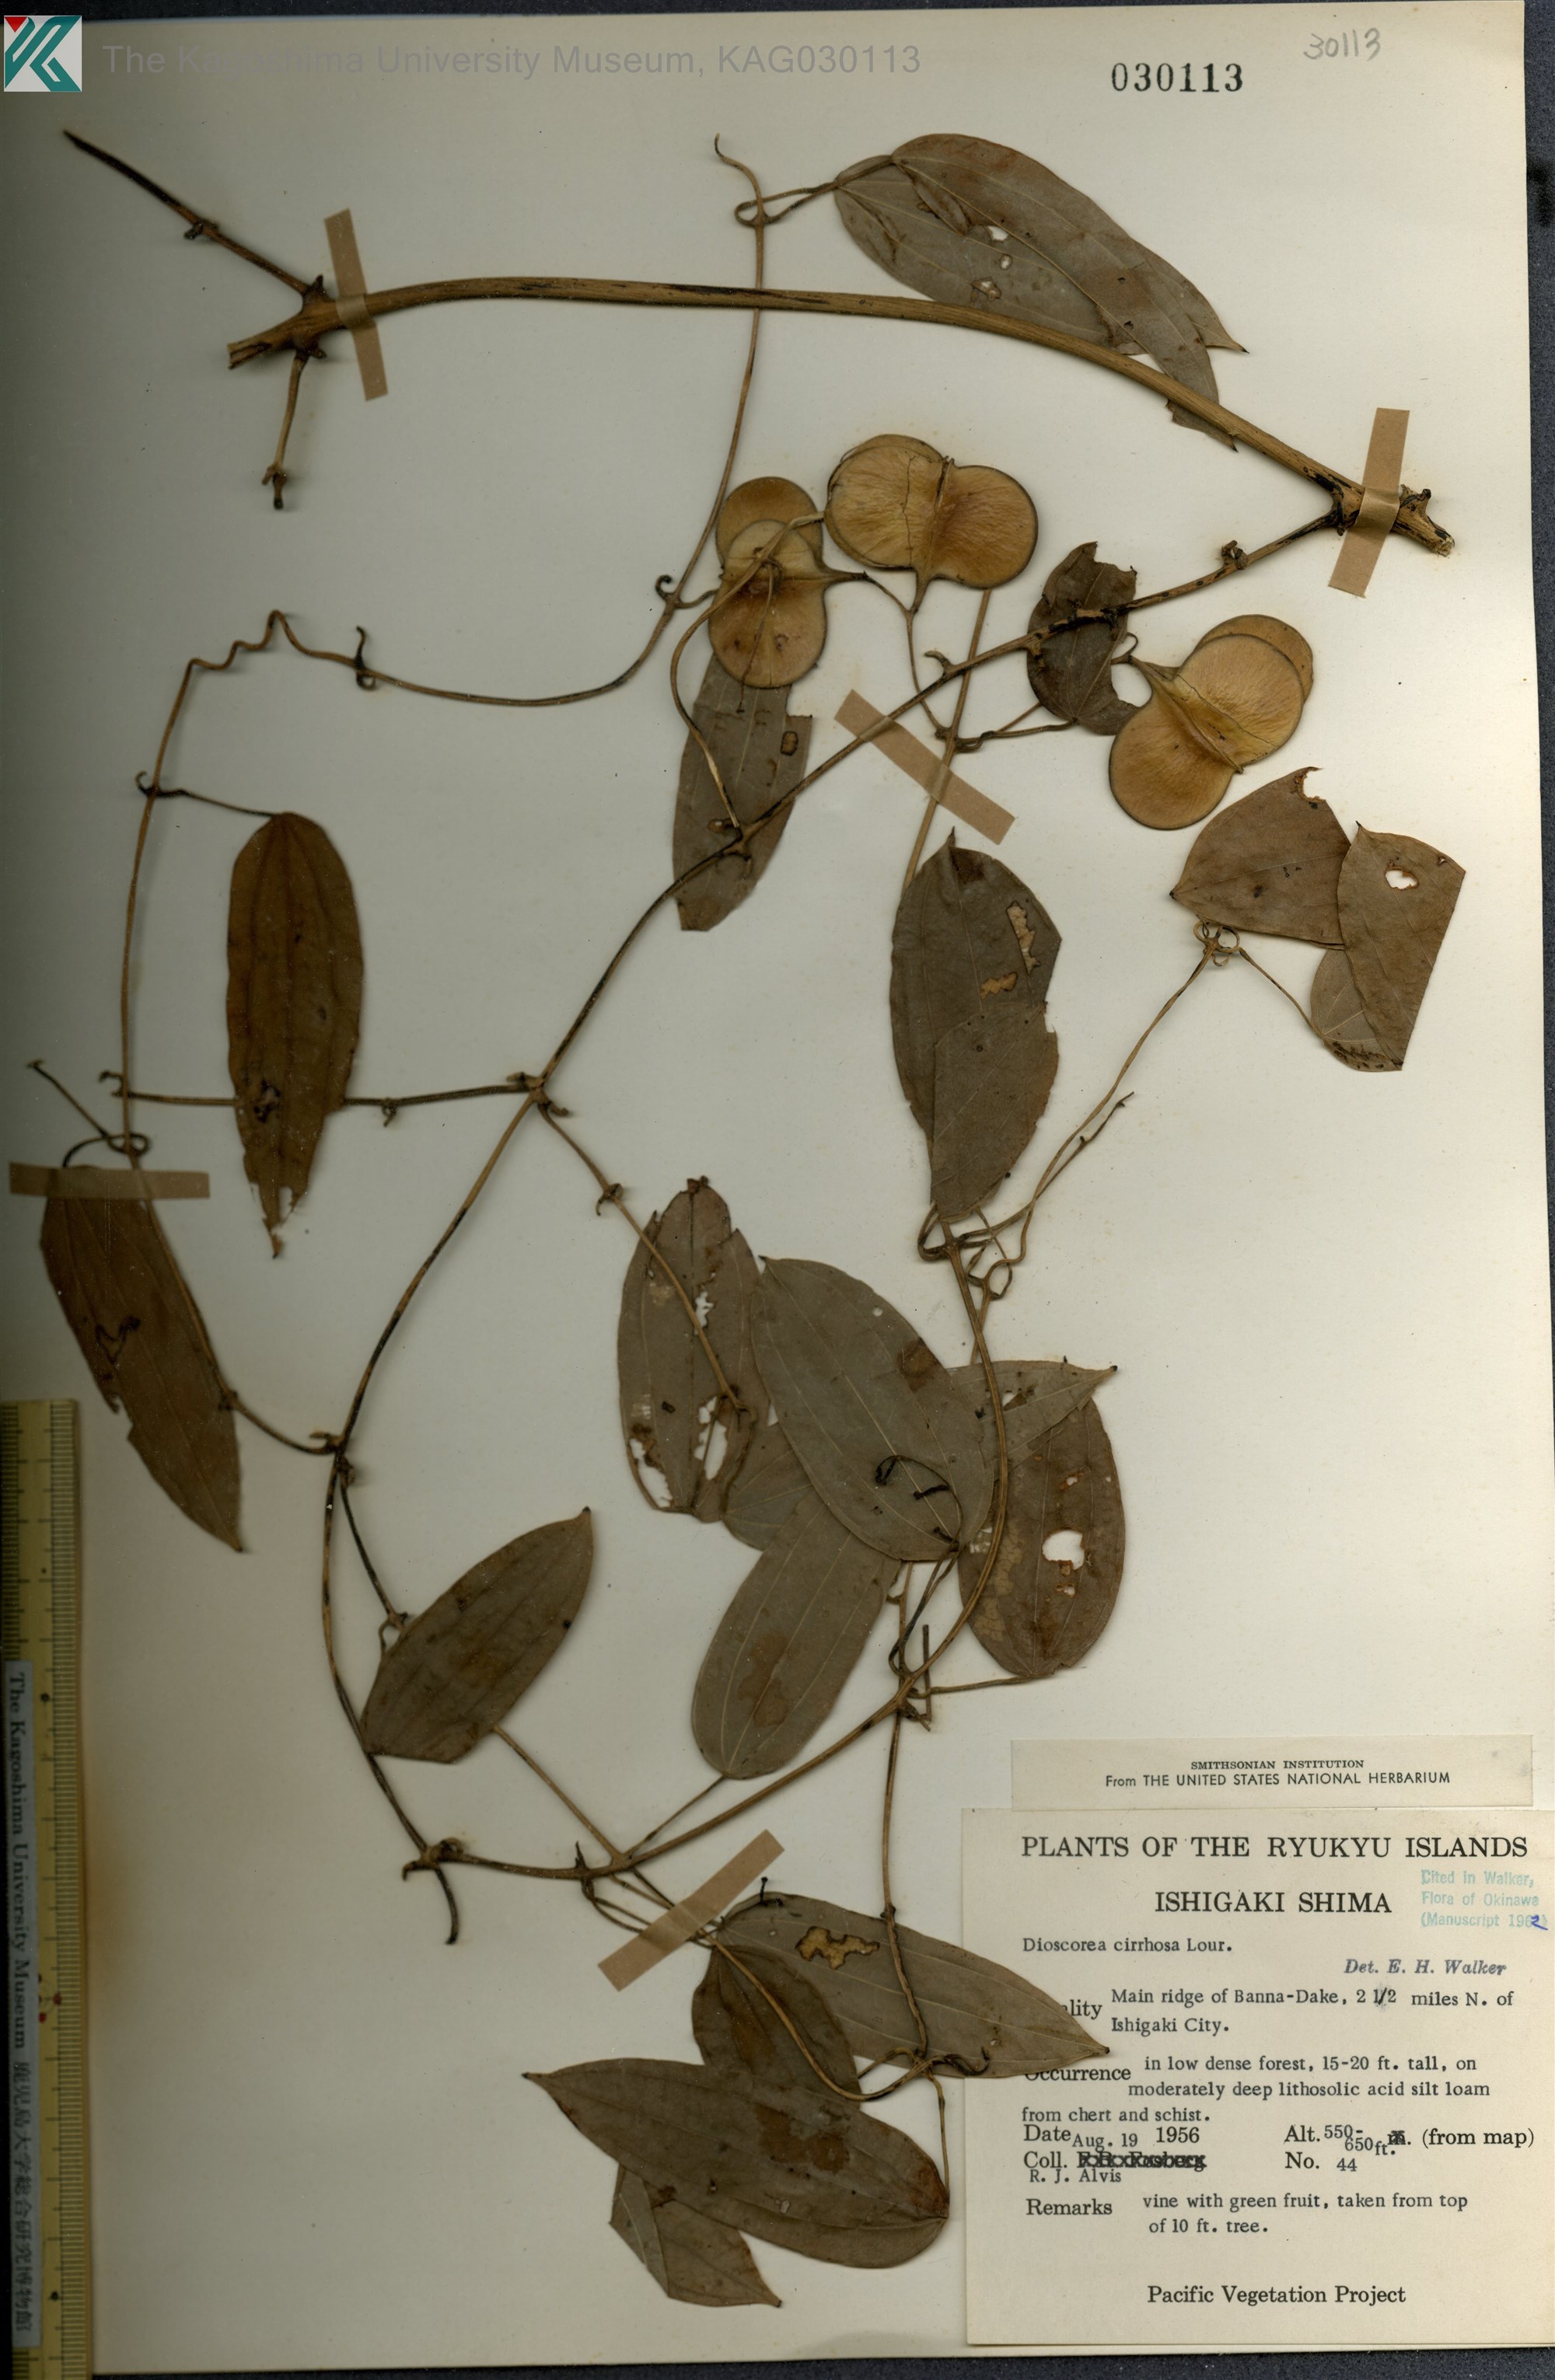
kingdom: Plantae
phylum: Tracheophyta
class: Liliopsida
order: Dioscoreales
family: Dioscoreaceae
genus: Dioscorea
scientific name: Dioscorea cirrhosa
